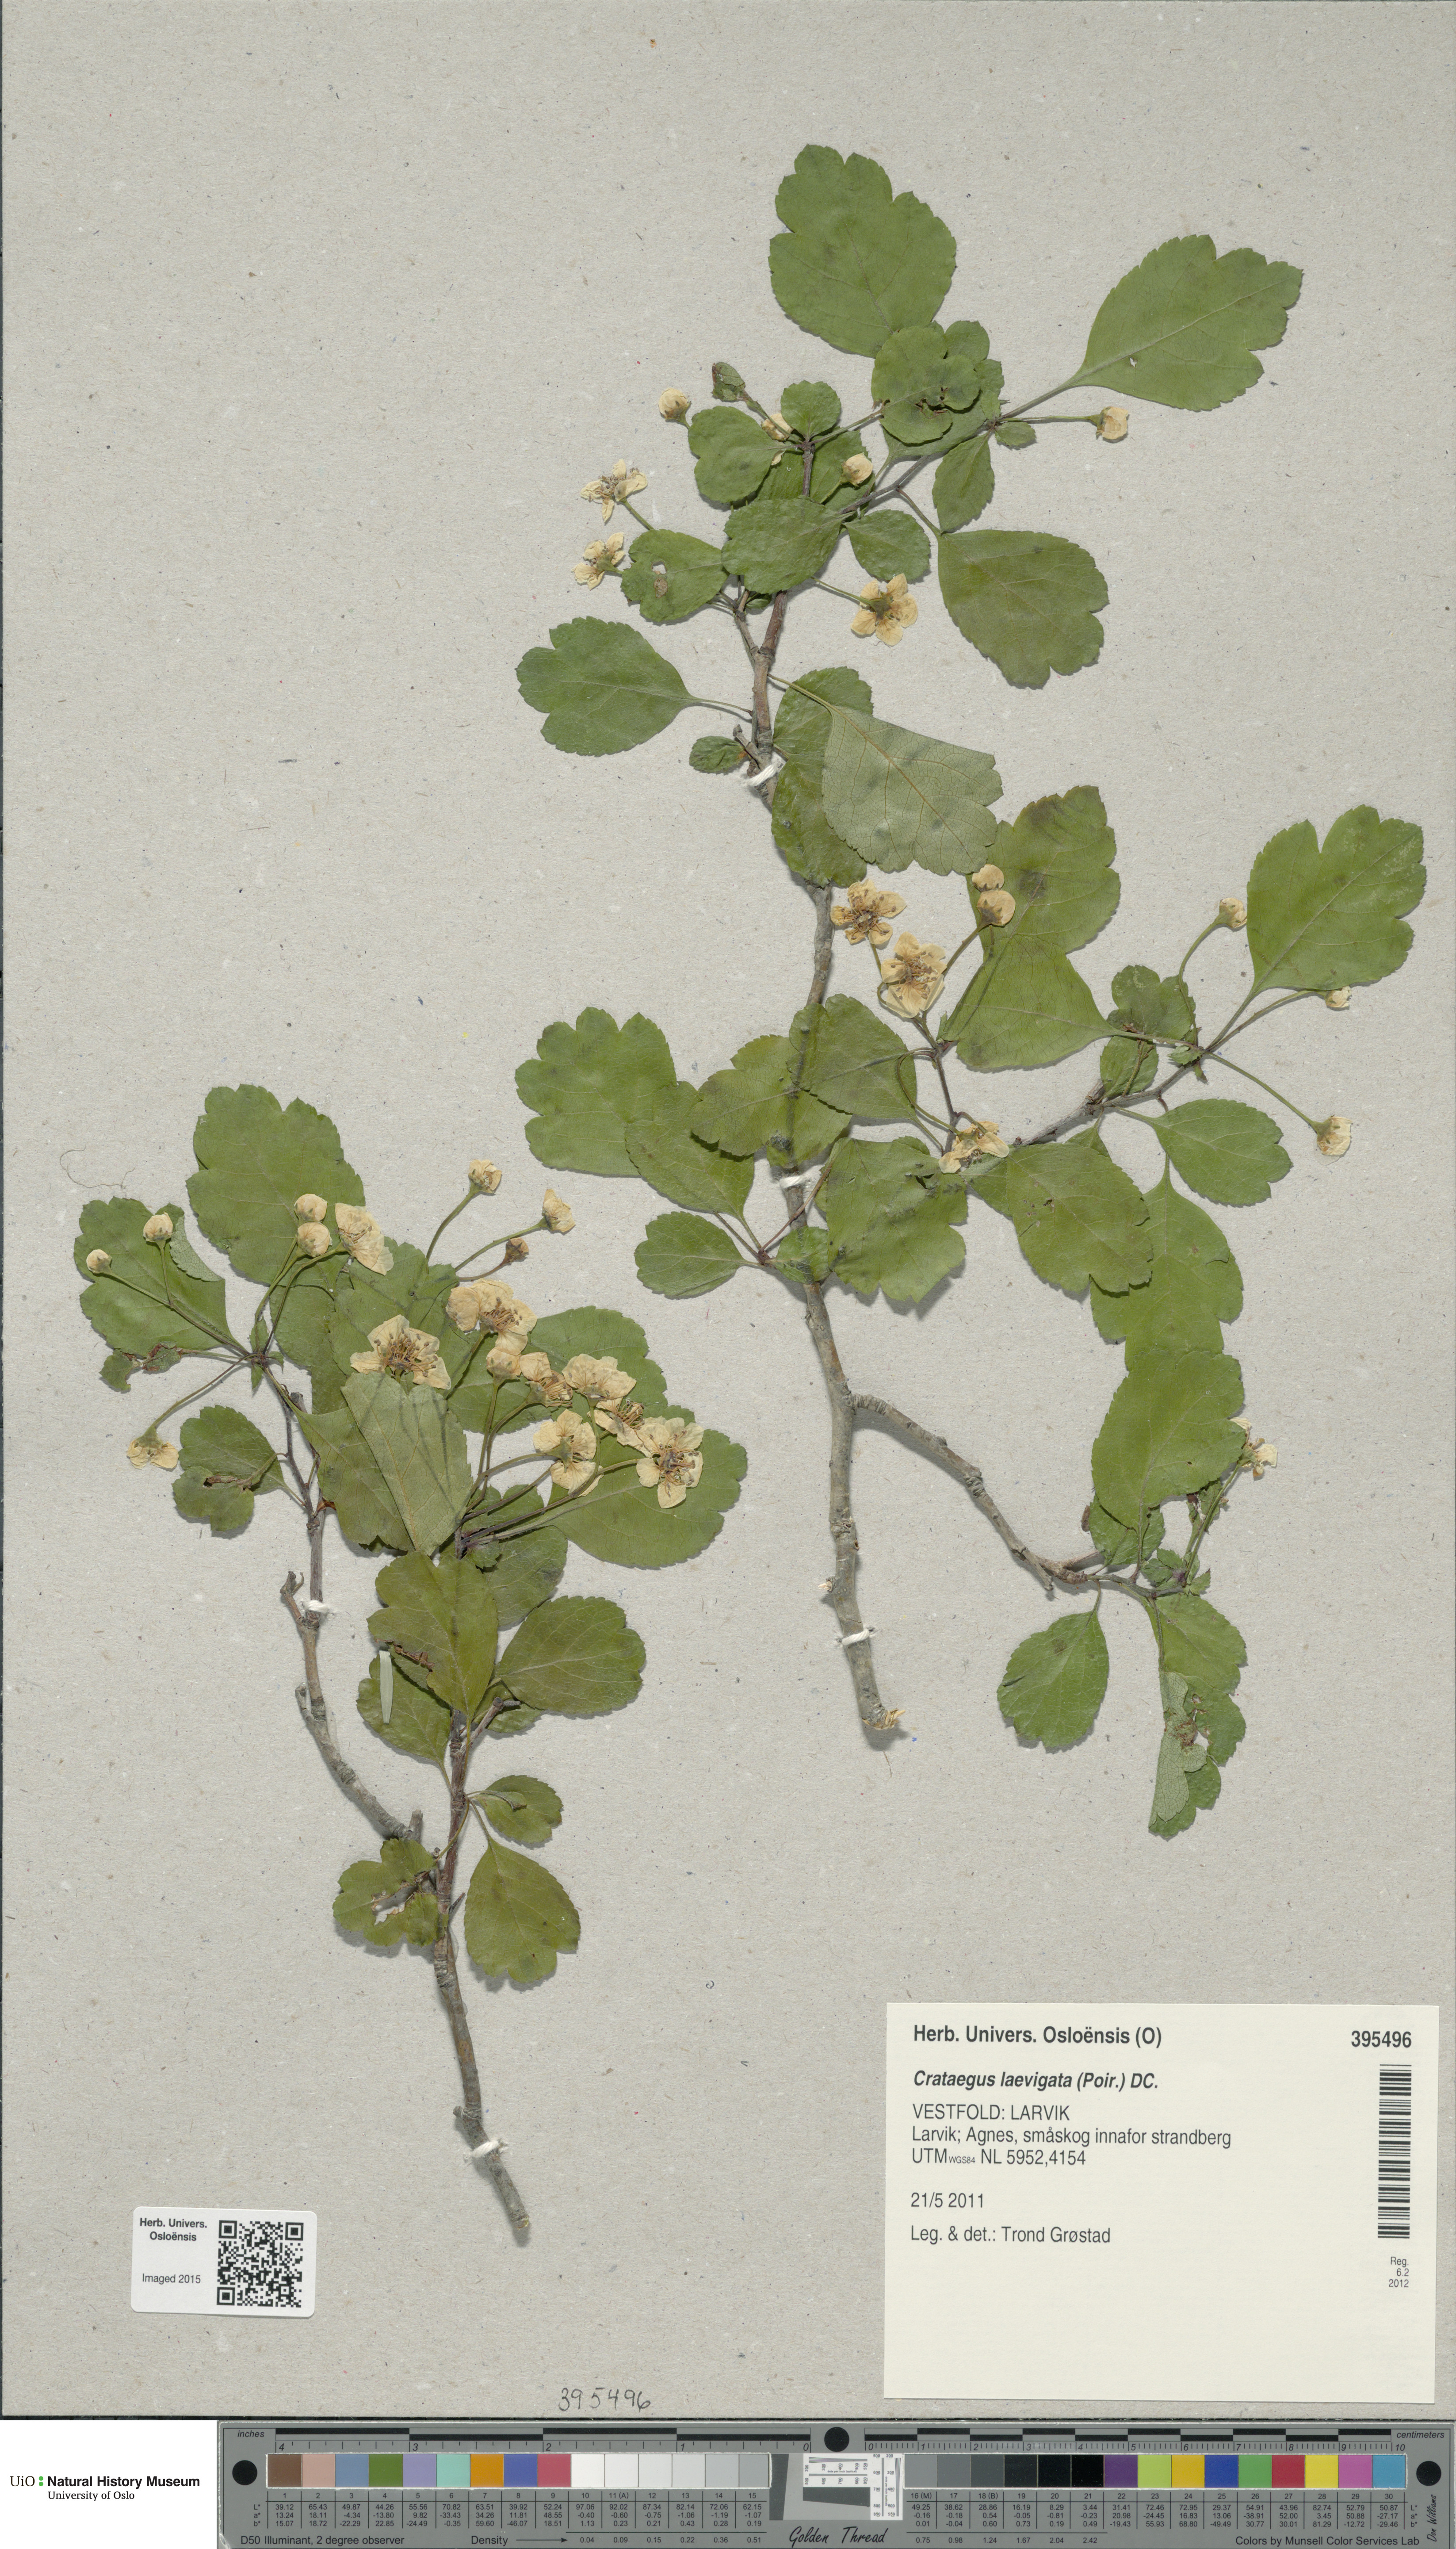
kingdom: Plantae
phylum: Tracheophyta
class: Magnoliopsida
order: Rosales
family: Rosaceae
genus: Crataegus
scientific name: Crataegus laevigata
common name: Midland hawthorn
